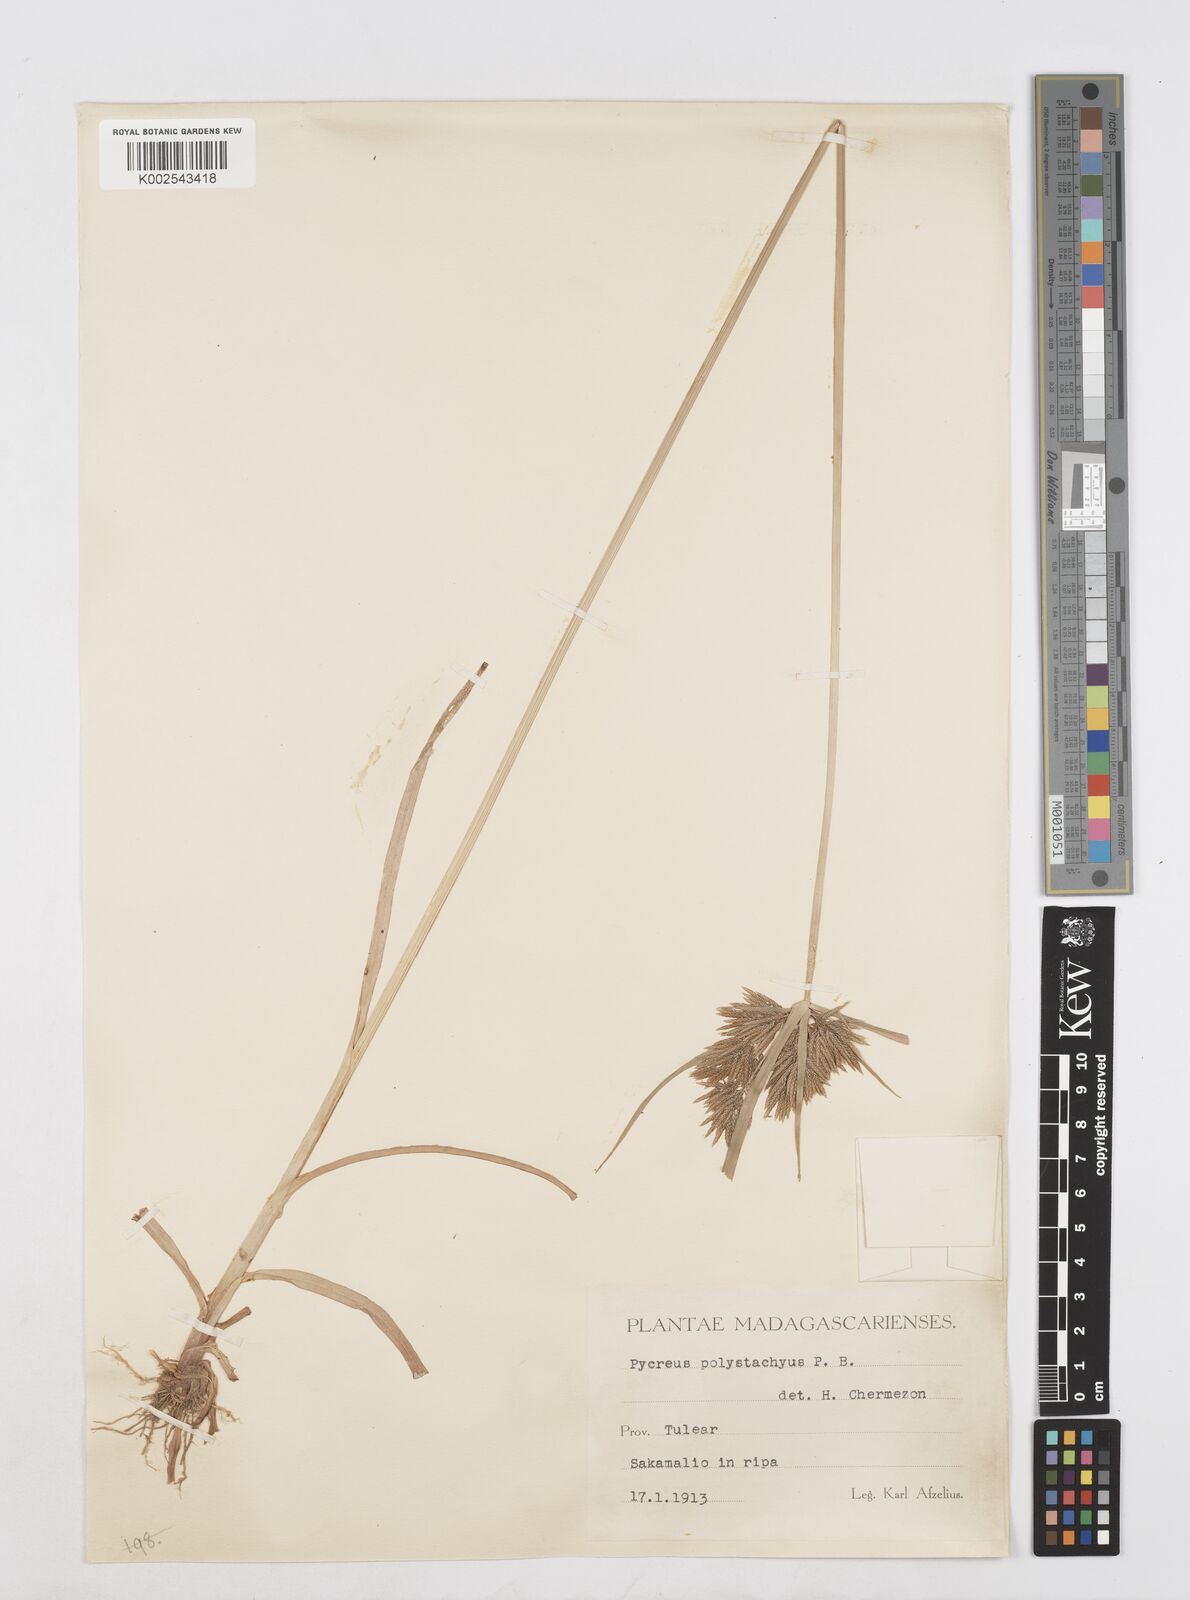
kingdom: Plantae
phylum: Tracheophyta
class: Liliopsida
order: Poales
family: Cyperaceae
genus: Cyperus
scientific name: Cyperus polystachyos
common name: Bunchy flat sedge
